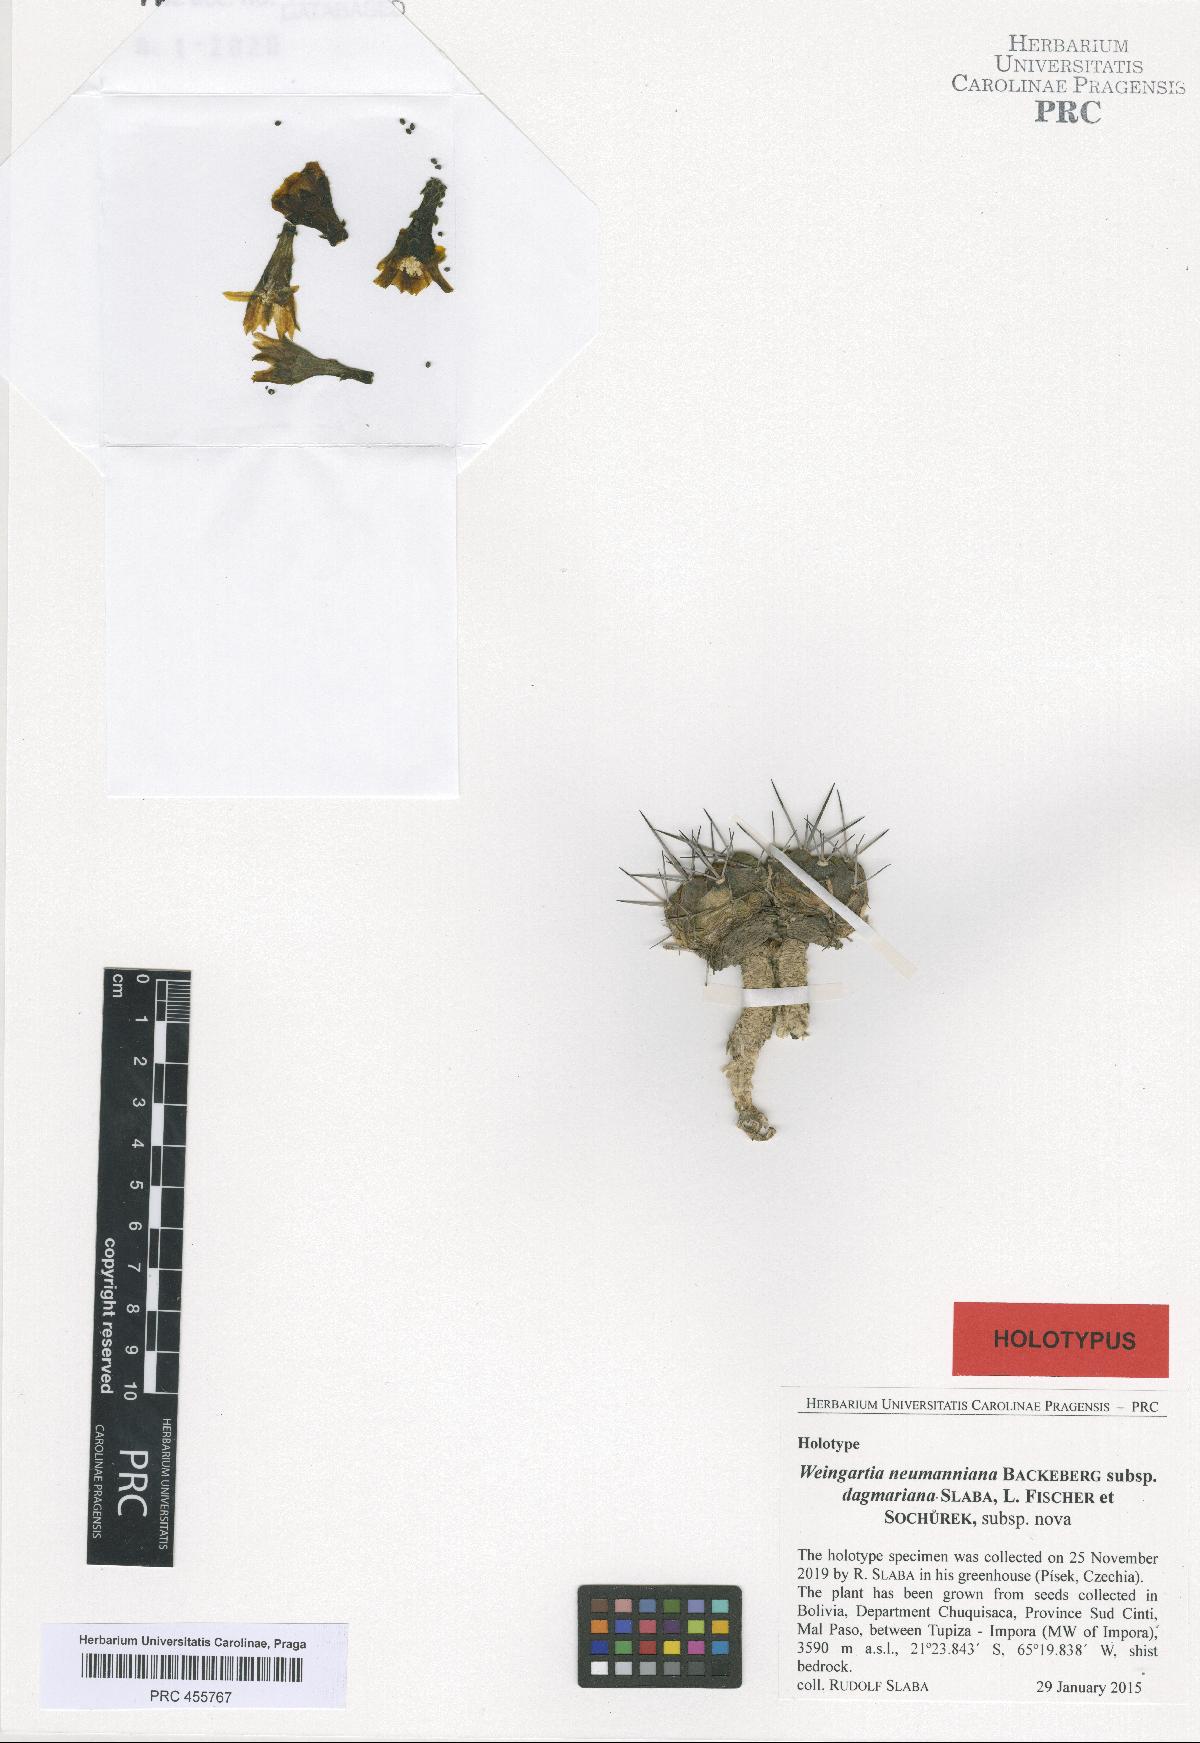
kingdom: Plantae
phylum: Tracheophyta
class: Magnoliopsida
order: Caryophyllales
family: Cactaceae
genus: Weingartia
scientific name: Weingartia neumanniana
